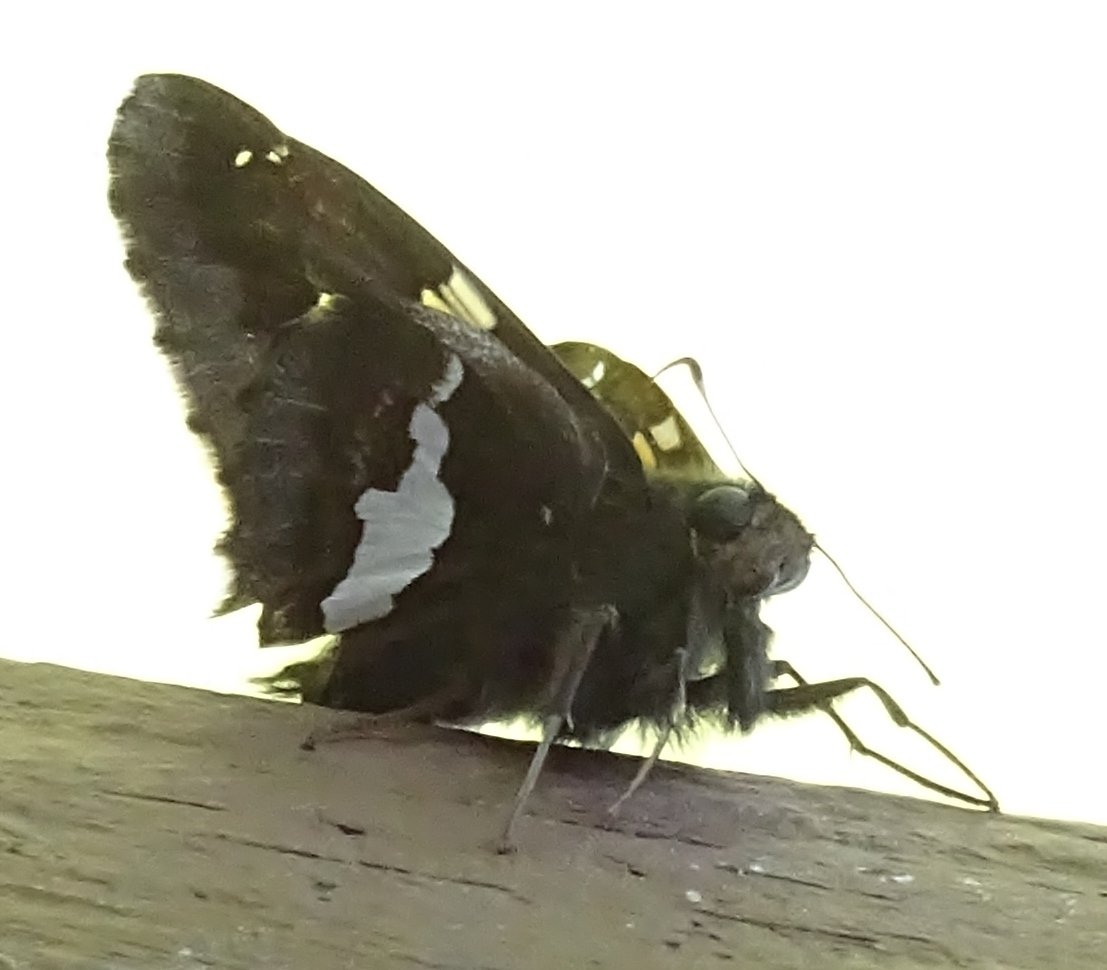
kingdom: Animalia
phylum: Arthropoda
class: Insecta
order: Lepidoptera
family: Hesperiidae
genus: Epargyreus
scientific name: Epargyreus clarus
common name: Silver-spotted Skipper
